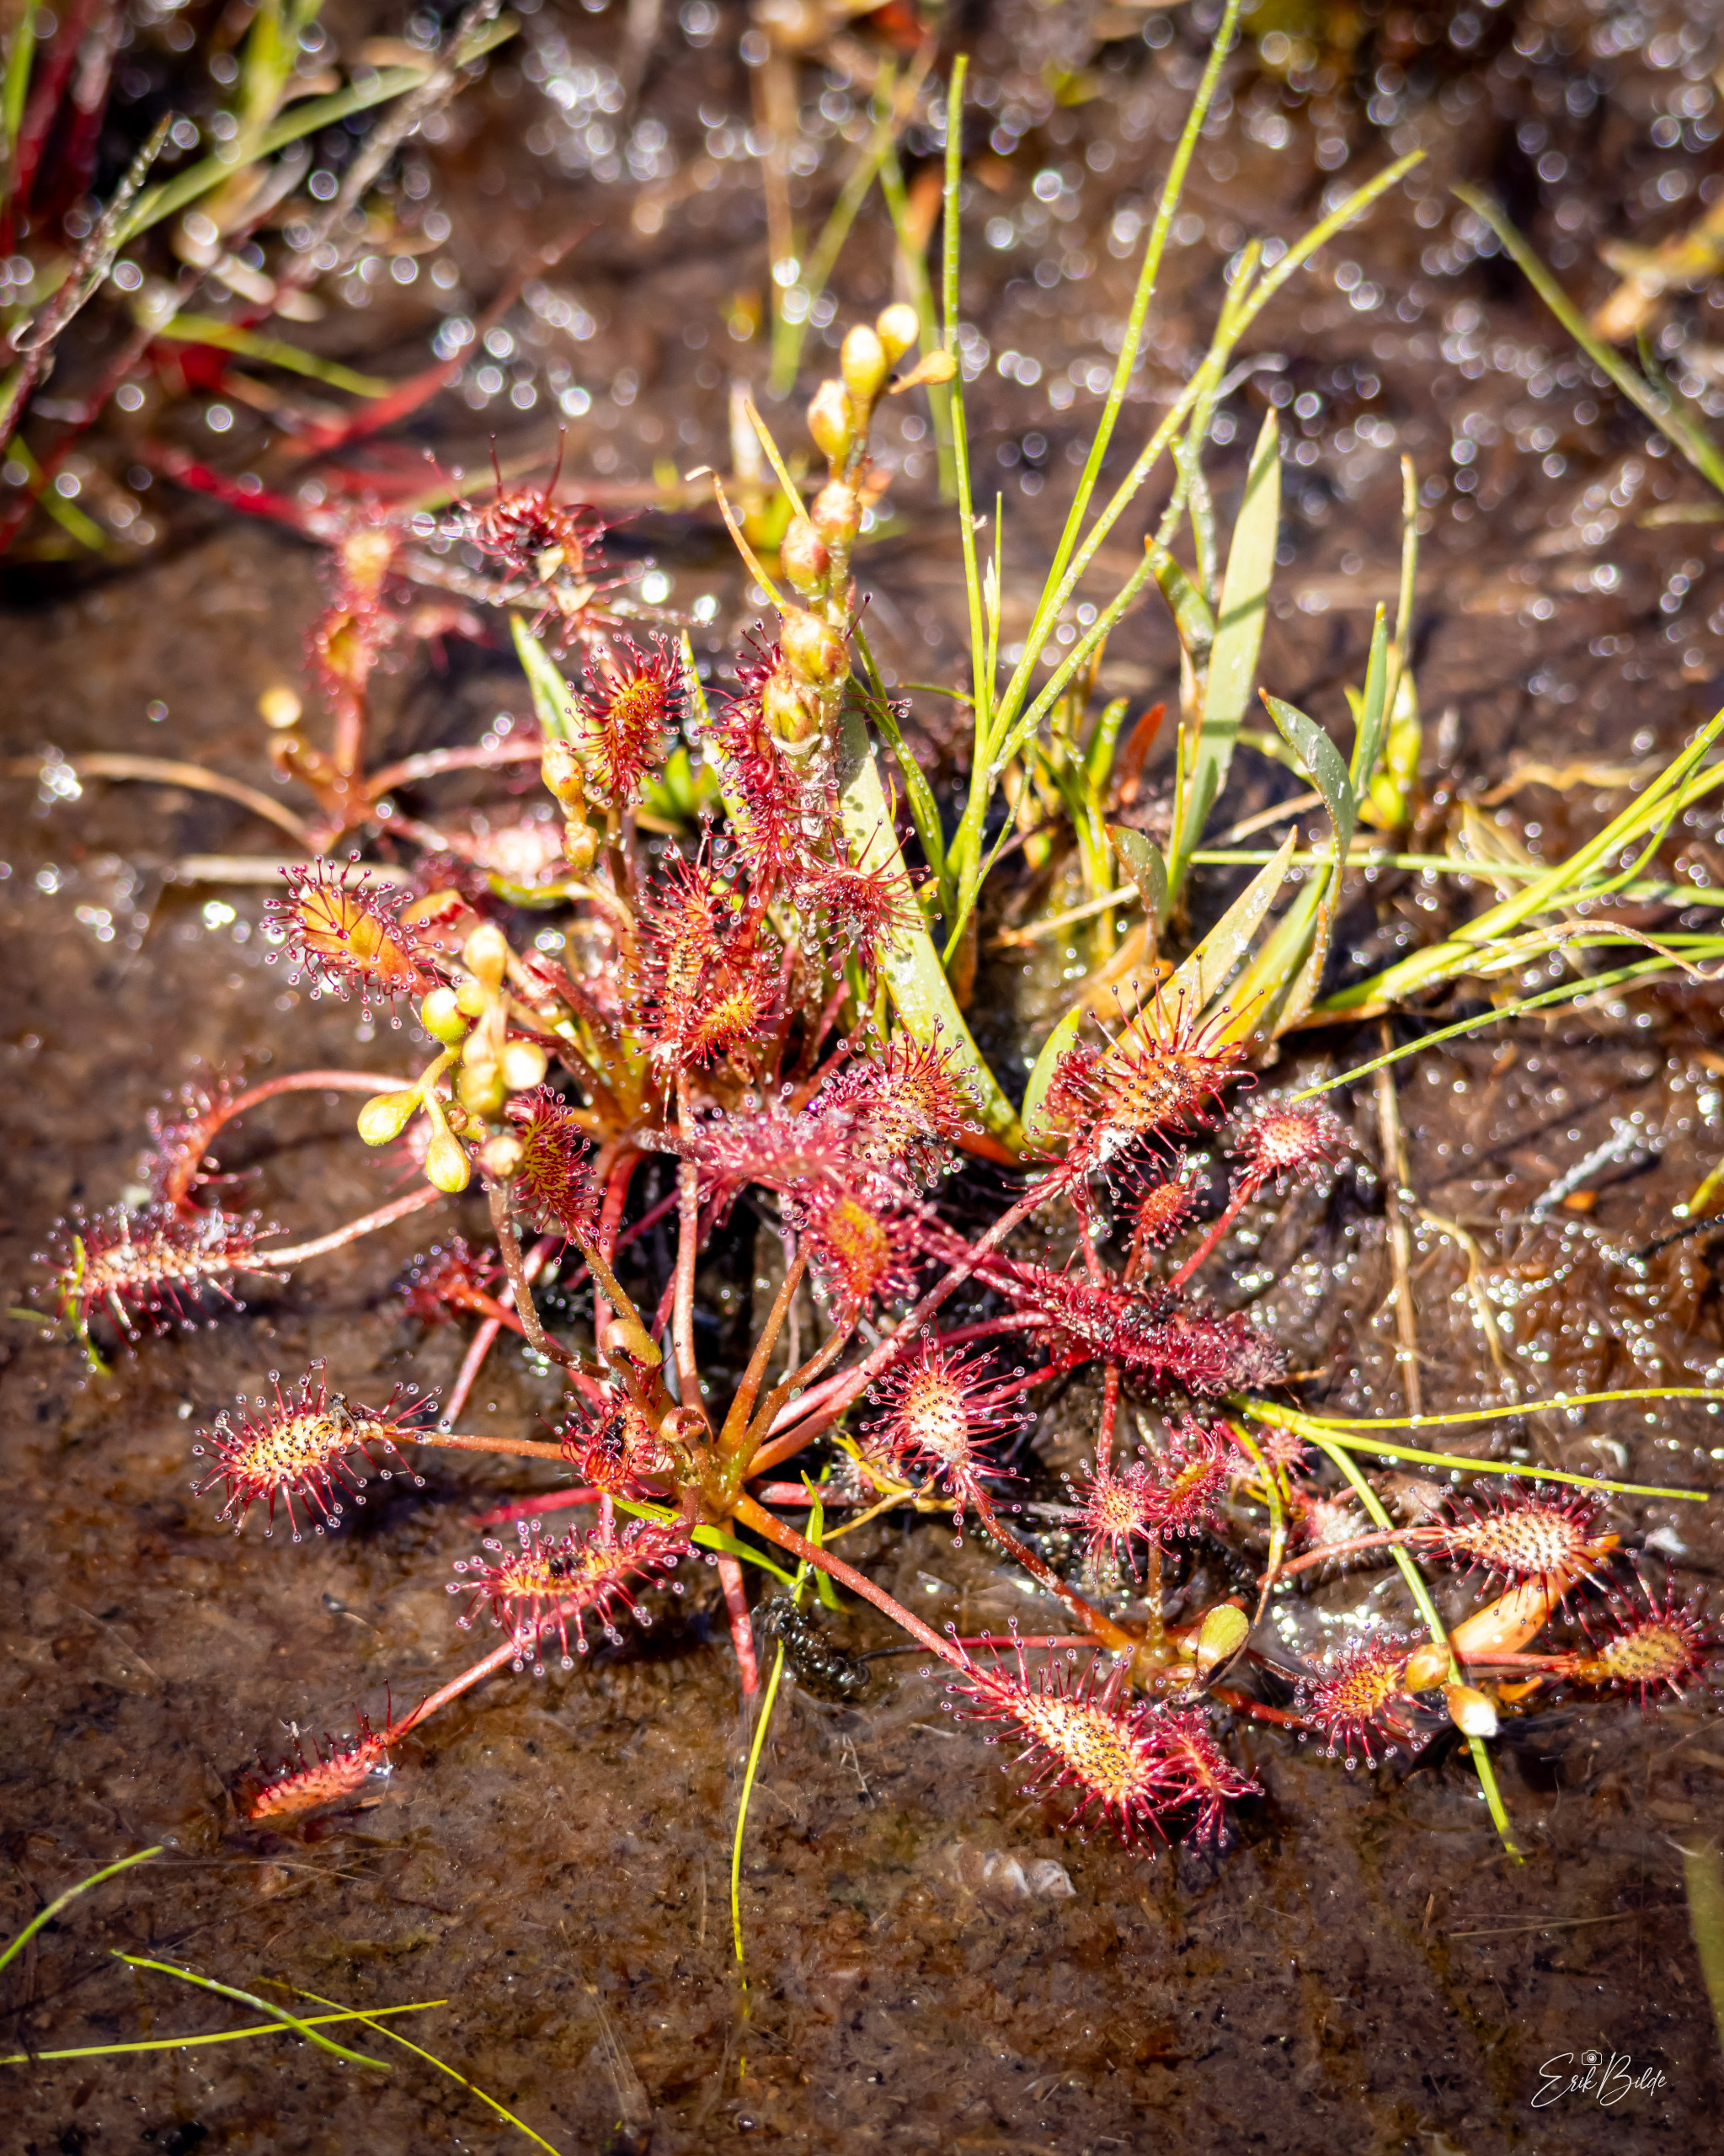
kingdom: Plantae
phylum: Tracheophyta
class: Magnoliopsida
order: Caryophyllales
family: Droseraceae
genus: Drosera
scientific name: Drosera intermedia
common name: Liden soldug
